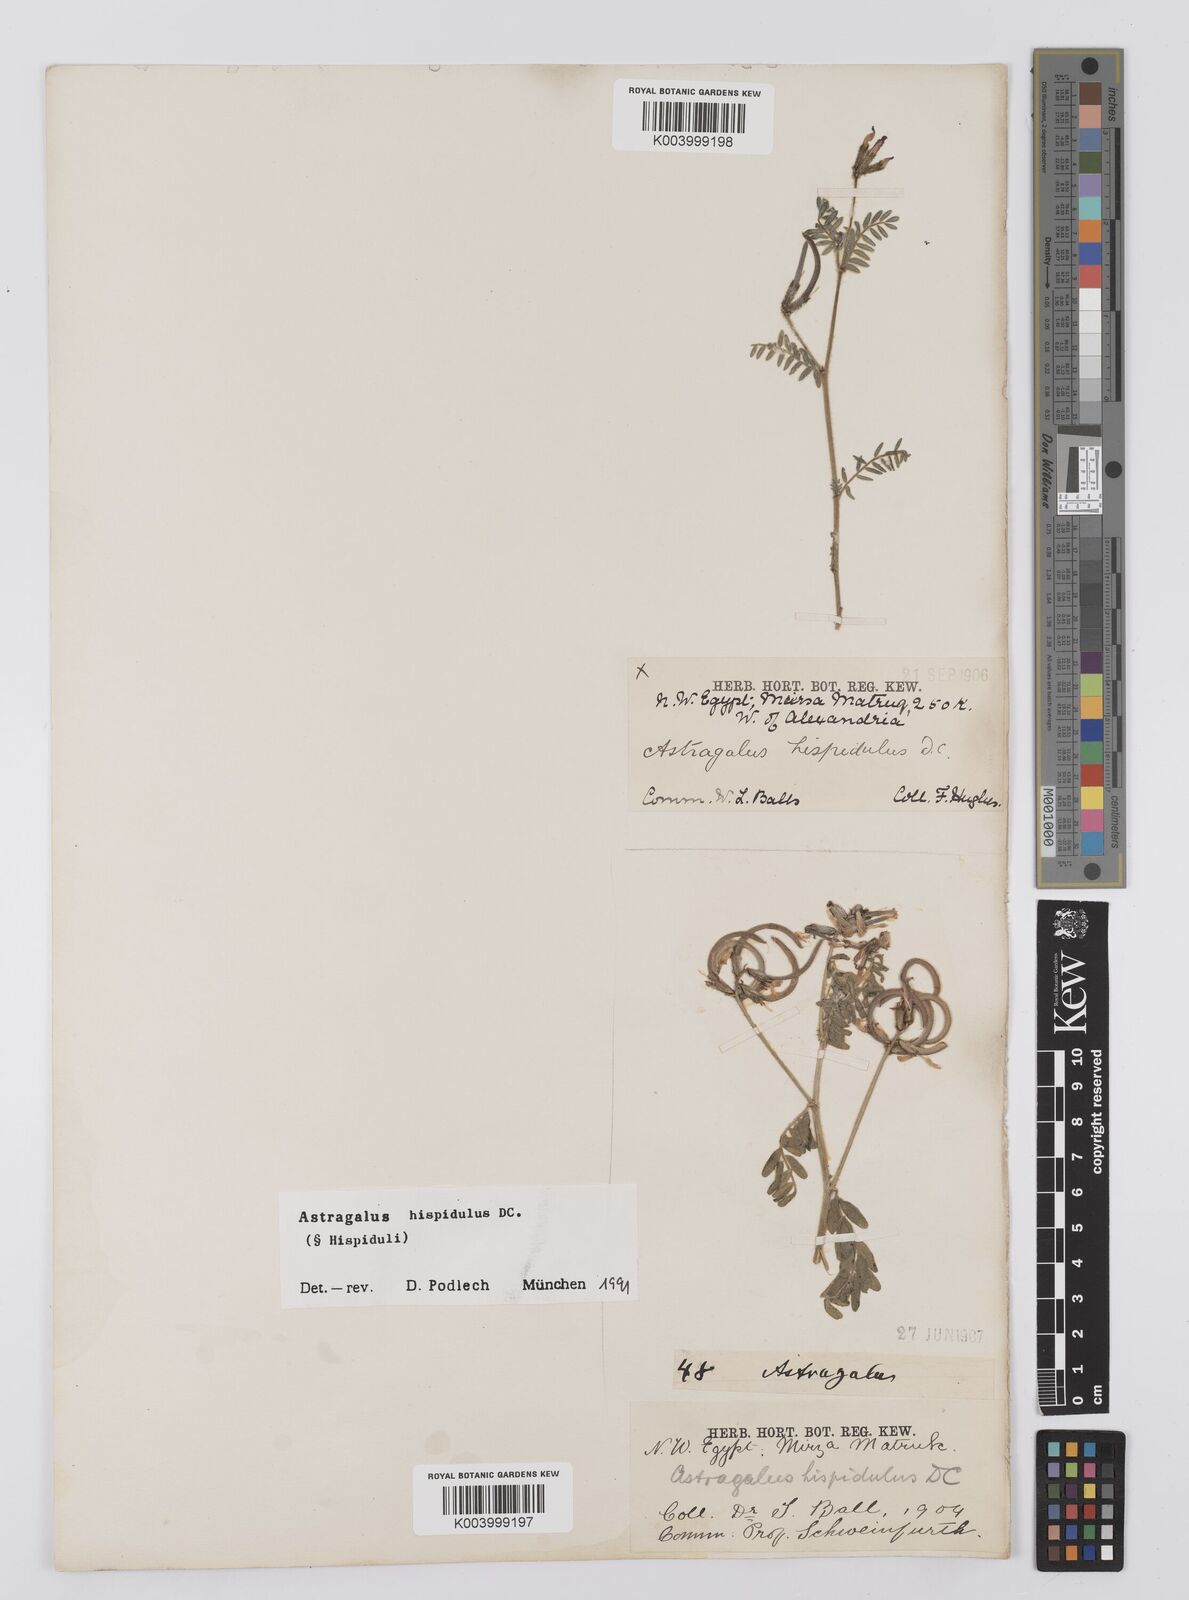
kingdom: Plantae
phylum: Tracheophyta
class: Magnoliopsida
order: Fabales
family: Fabaceae
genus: Astragalus
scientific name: Astragalus hispidulus
